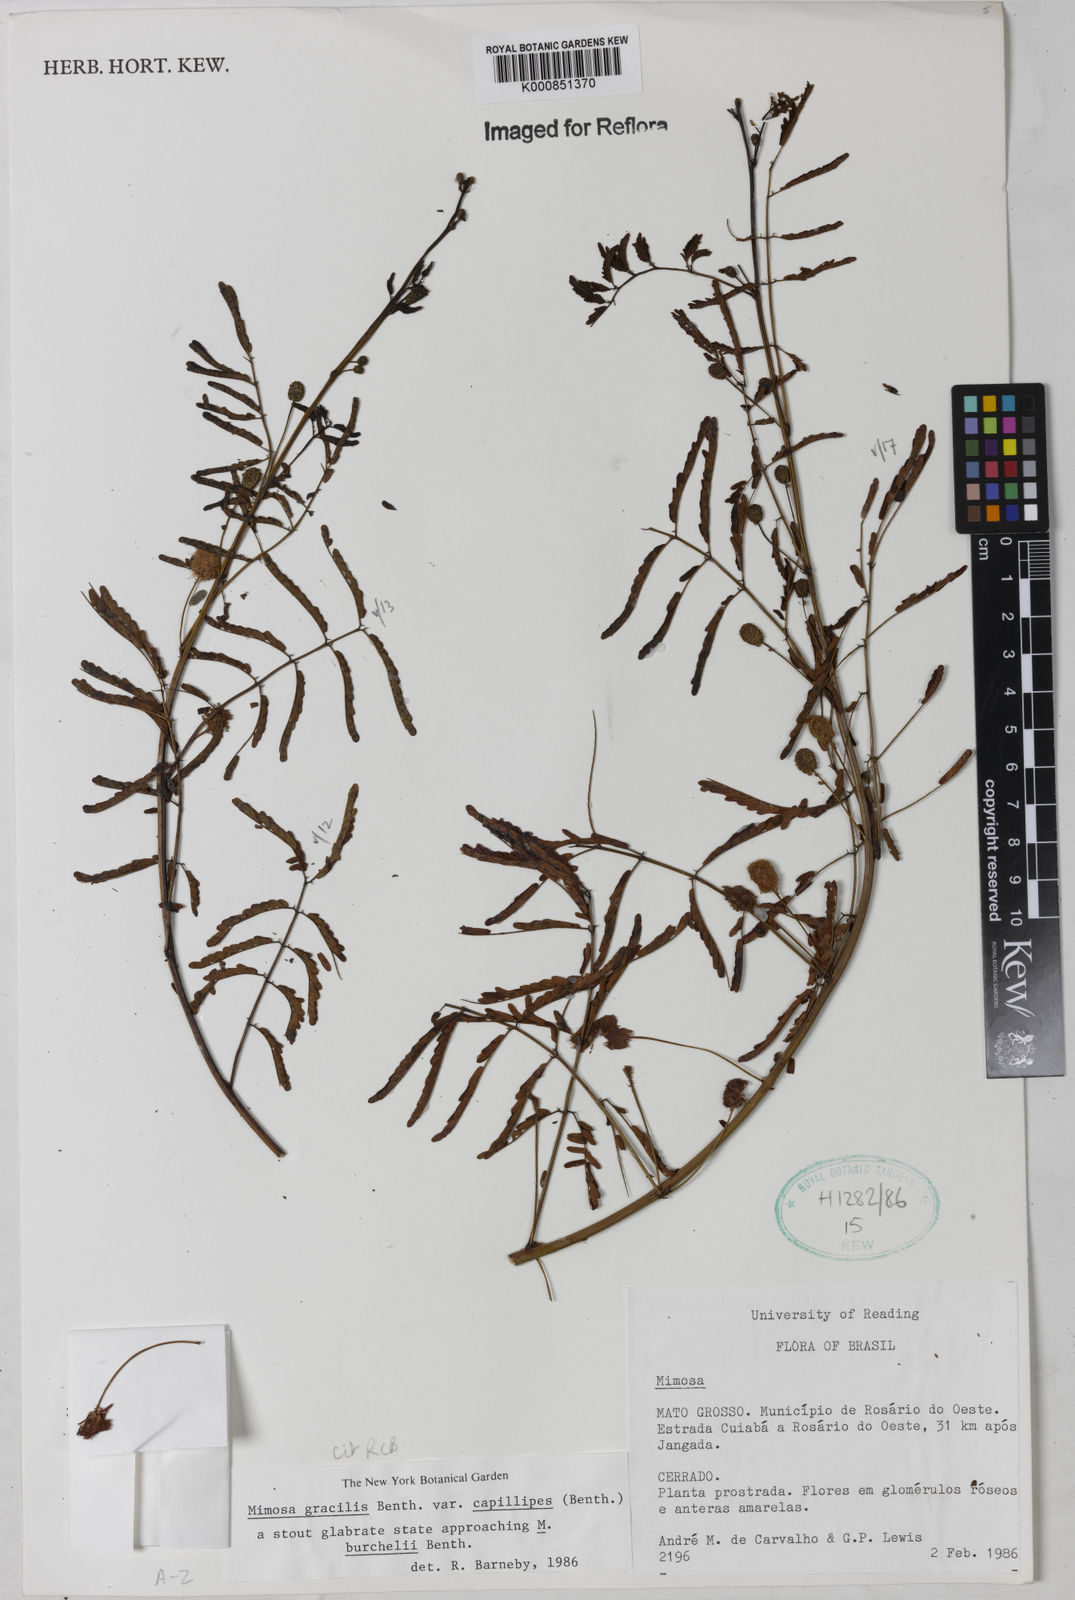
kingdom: Plantae
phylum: Tracheophyta
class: Magnoliopsida
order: Fabales
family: Fabaceae
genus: Mimosa
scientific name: Mimosa gracilis
